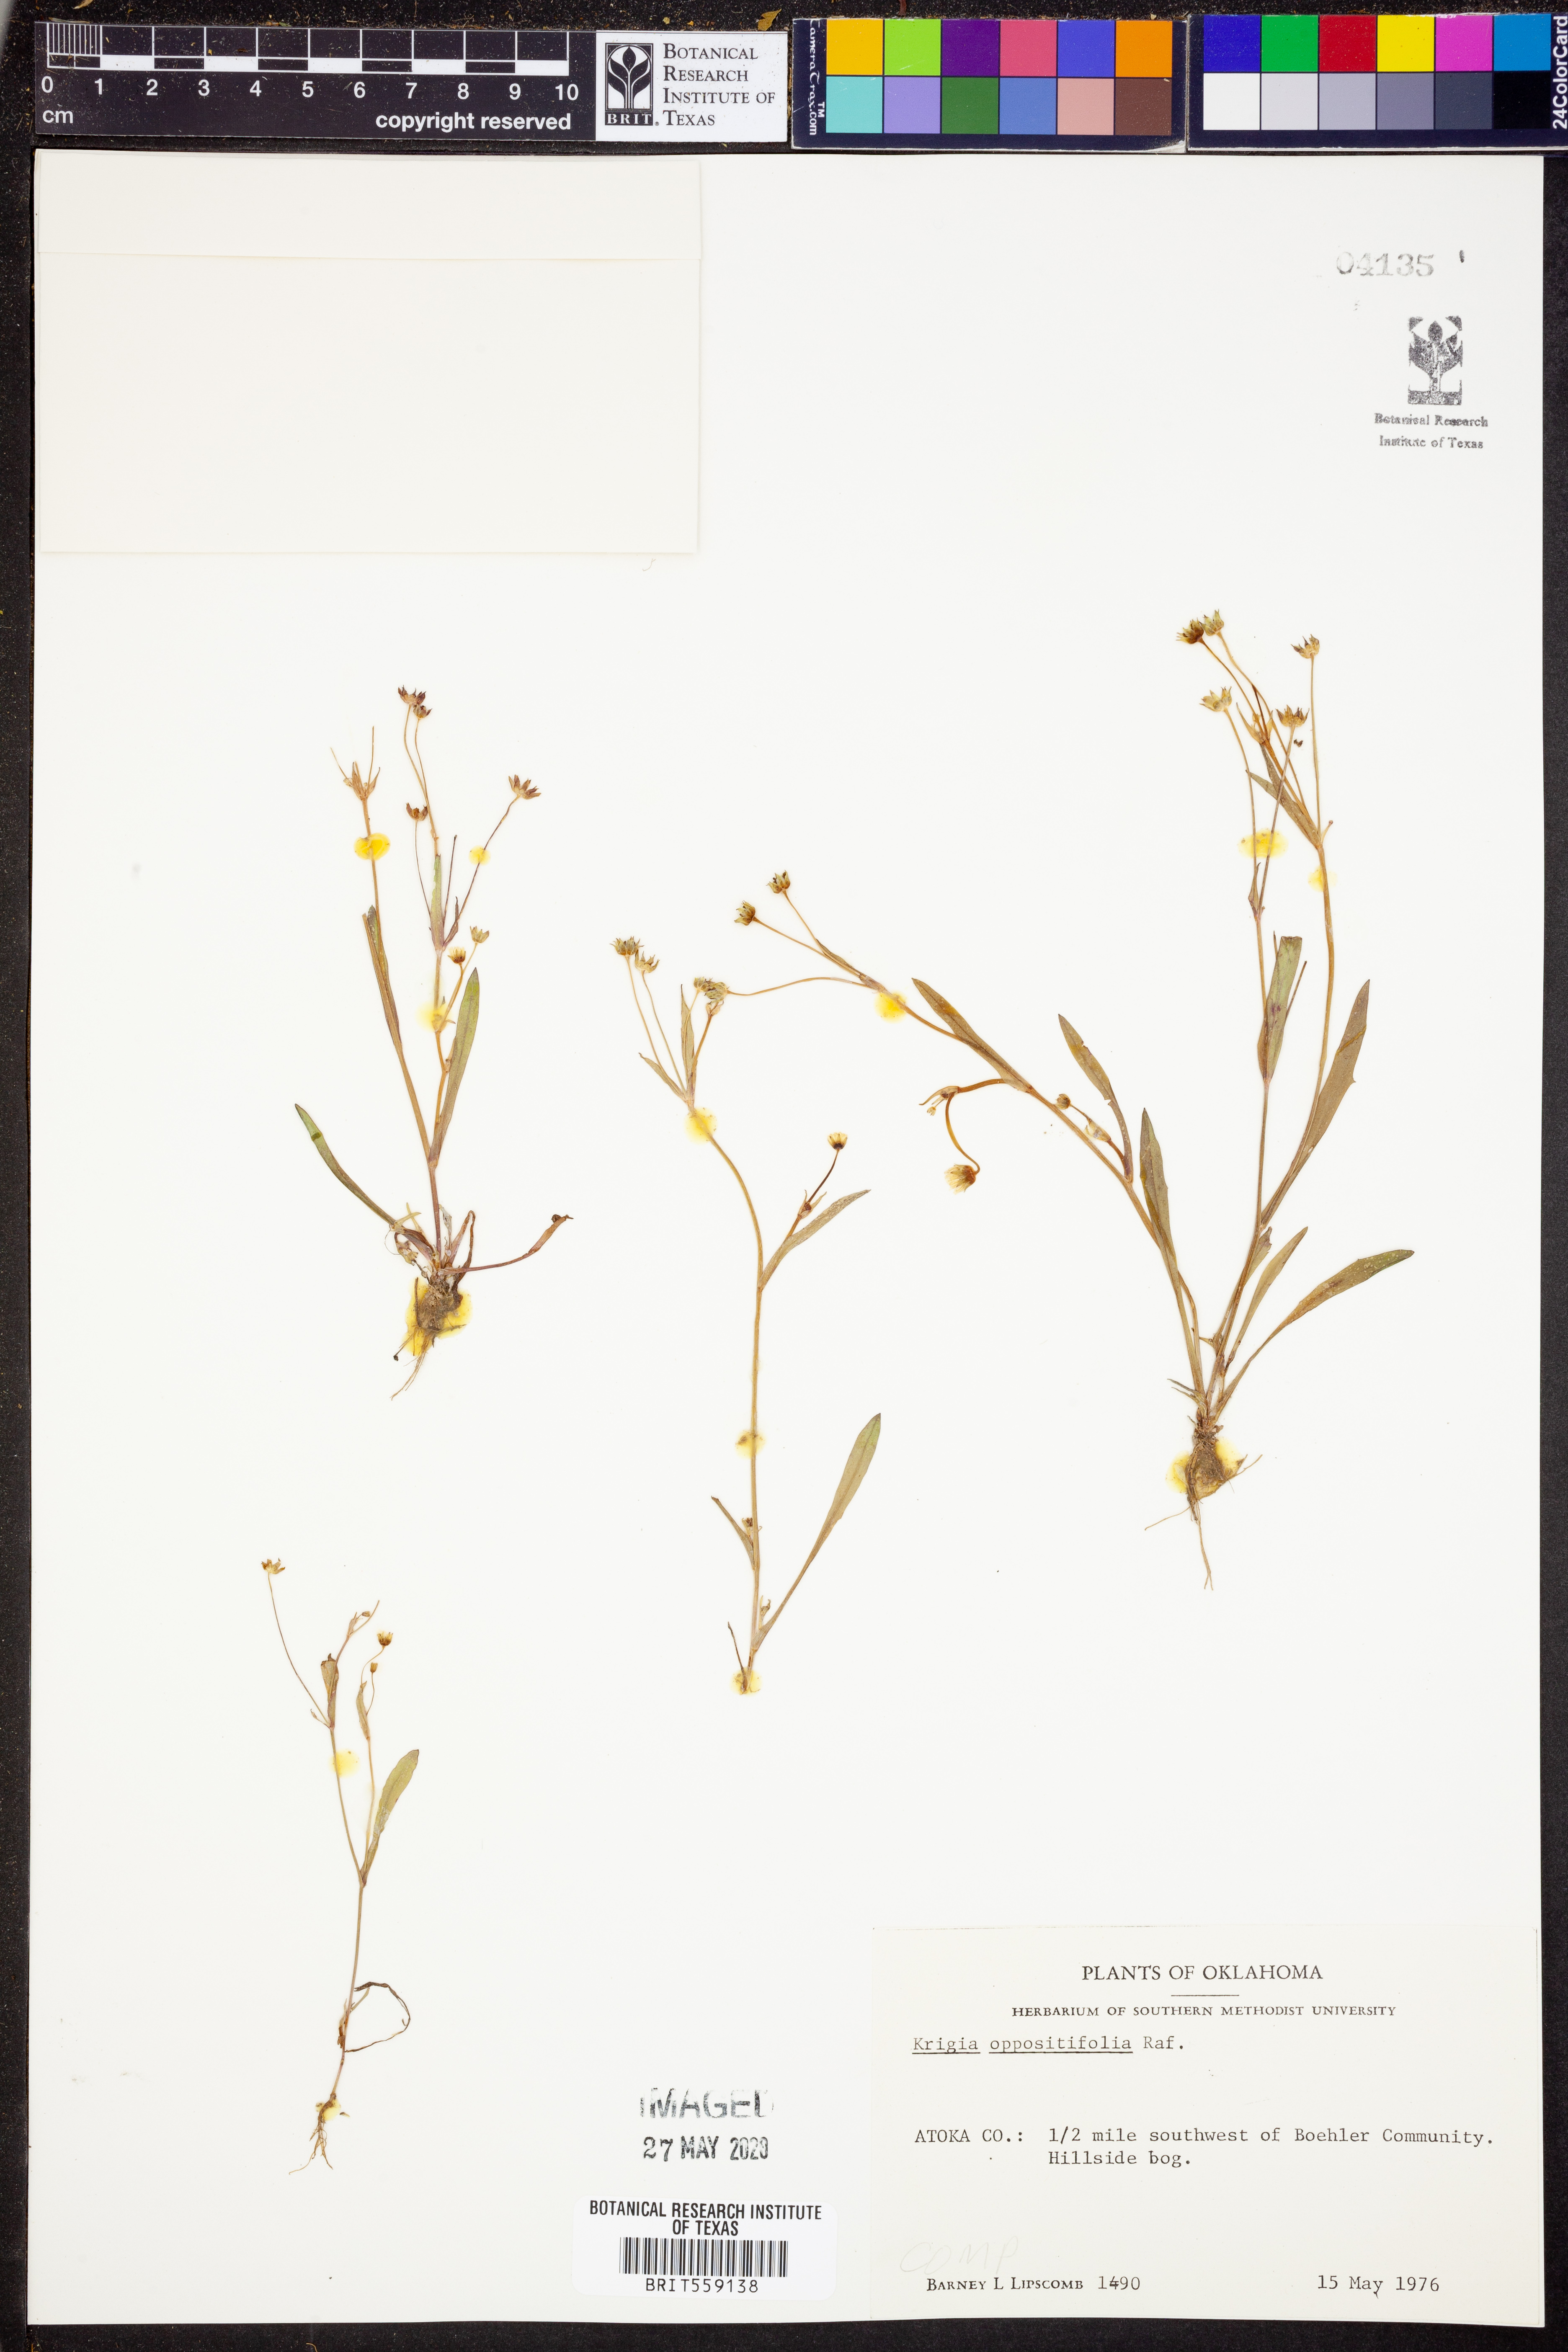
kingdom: Plantae
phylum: Tracheophyta
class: Magnoliopsida
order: Asterales
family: Asteraceae
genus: Krigia
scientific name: Krigia cespitosa
